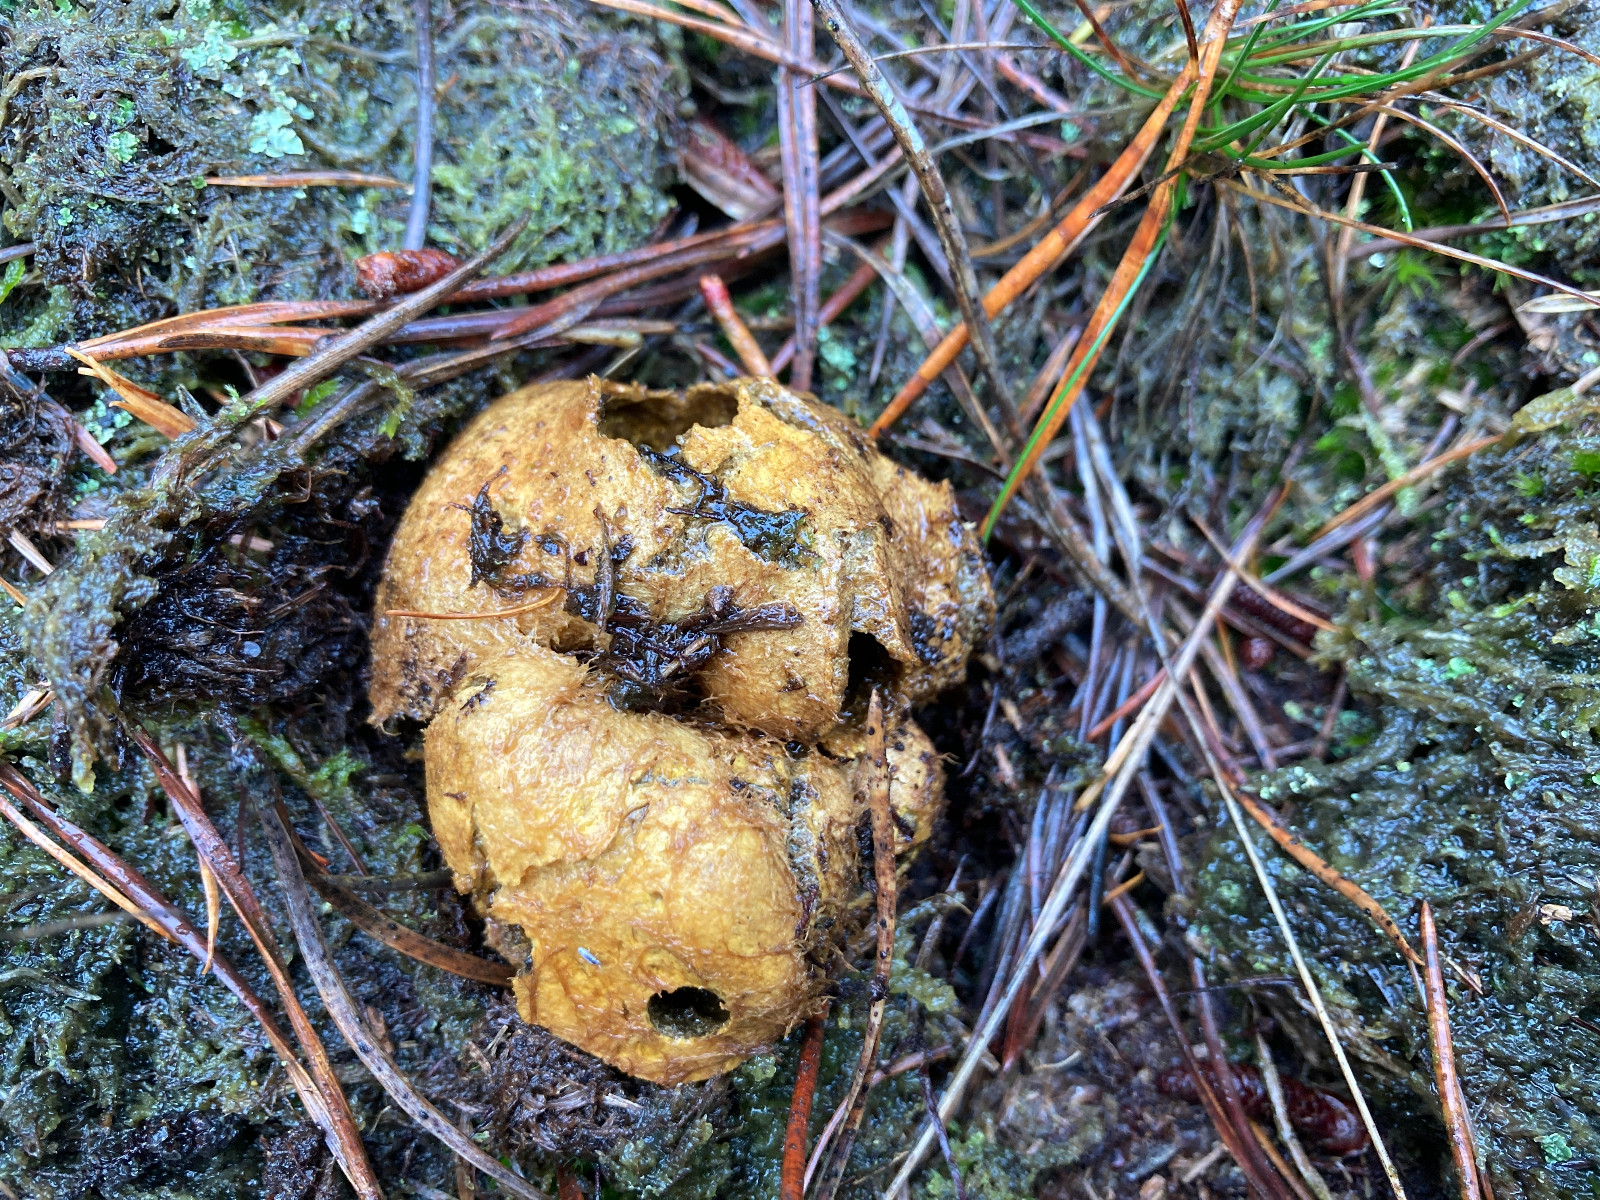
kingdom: Fungi
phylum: Basidiomycota
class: Agaricomycetes
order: Boletales
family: Rhizopogonaceae
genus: Rhizopogon
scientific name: Rhizopogon obtextus
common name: gul skægtrøffel
